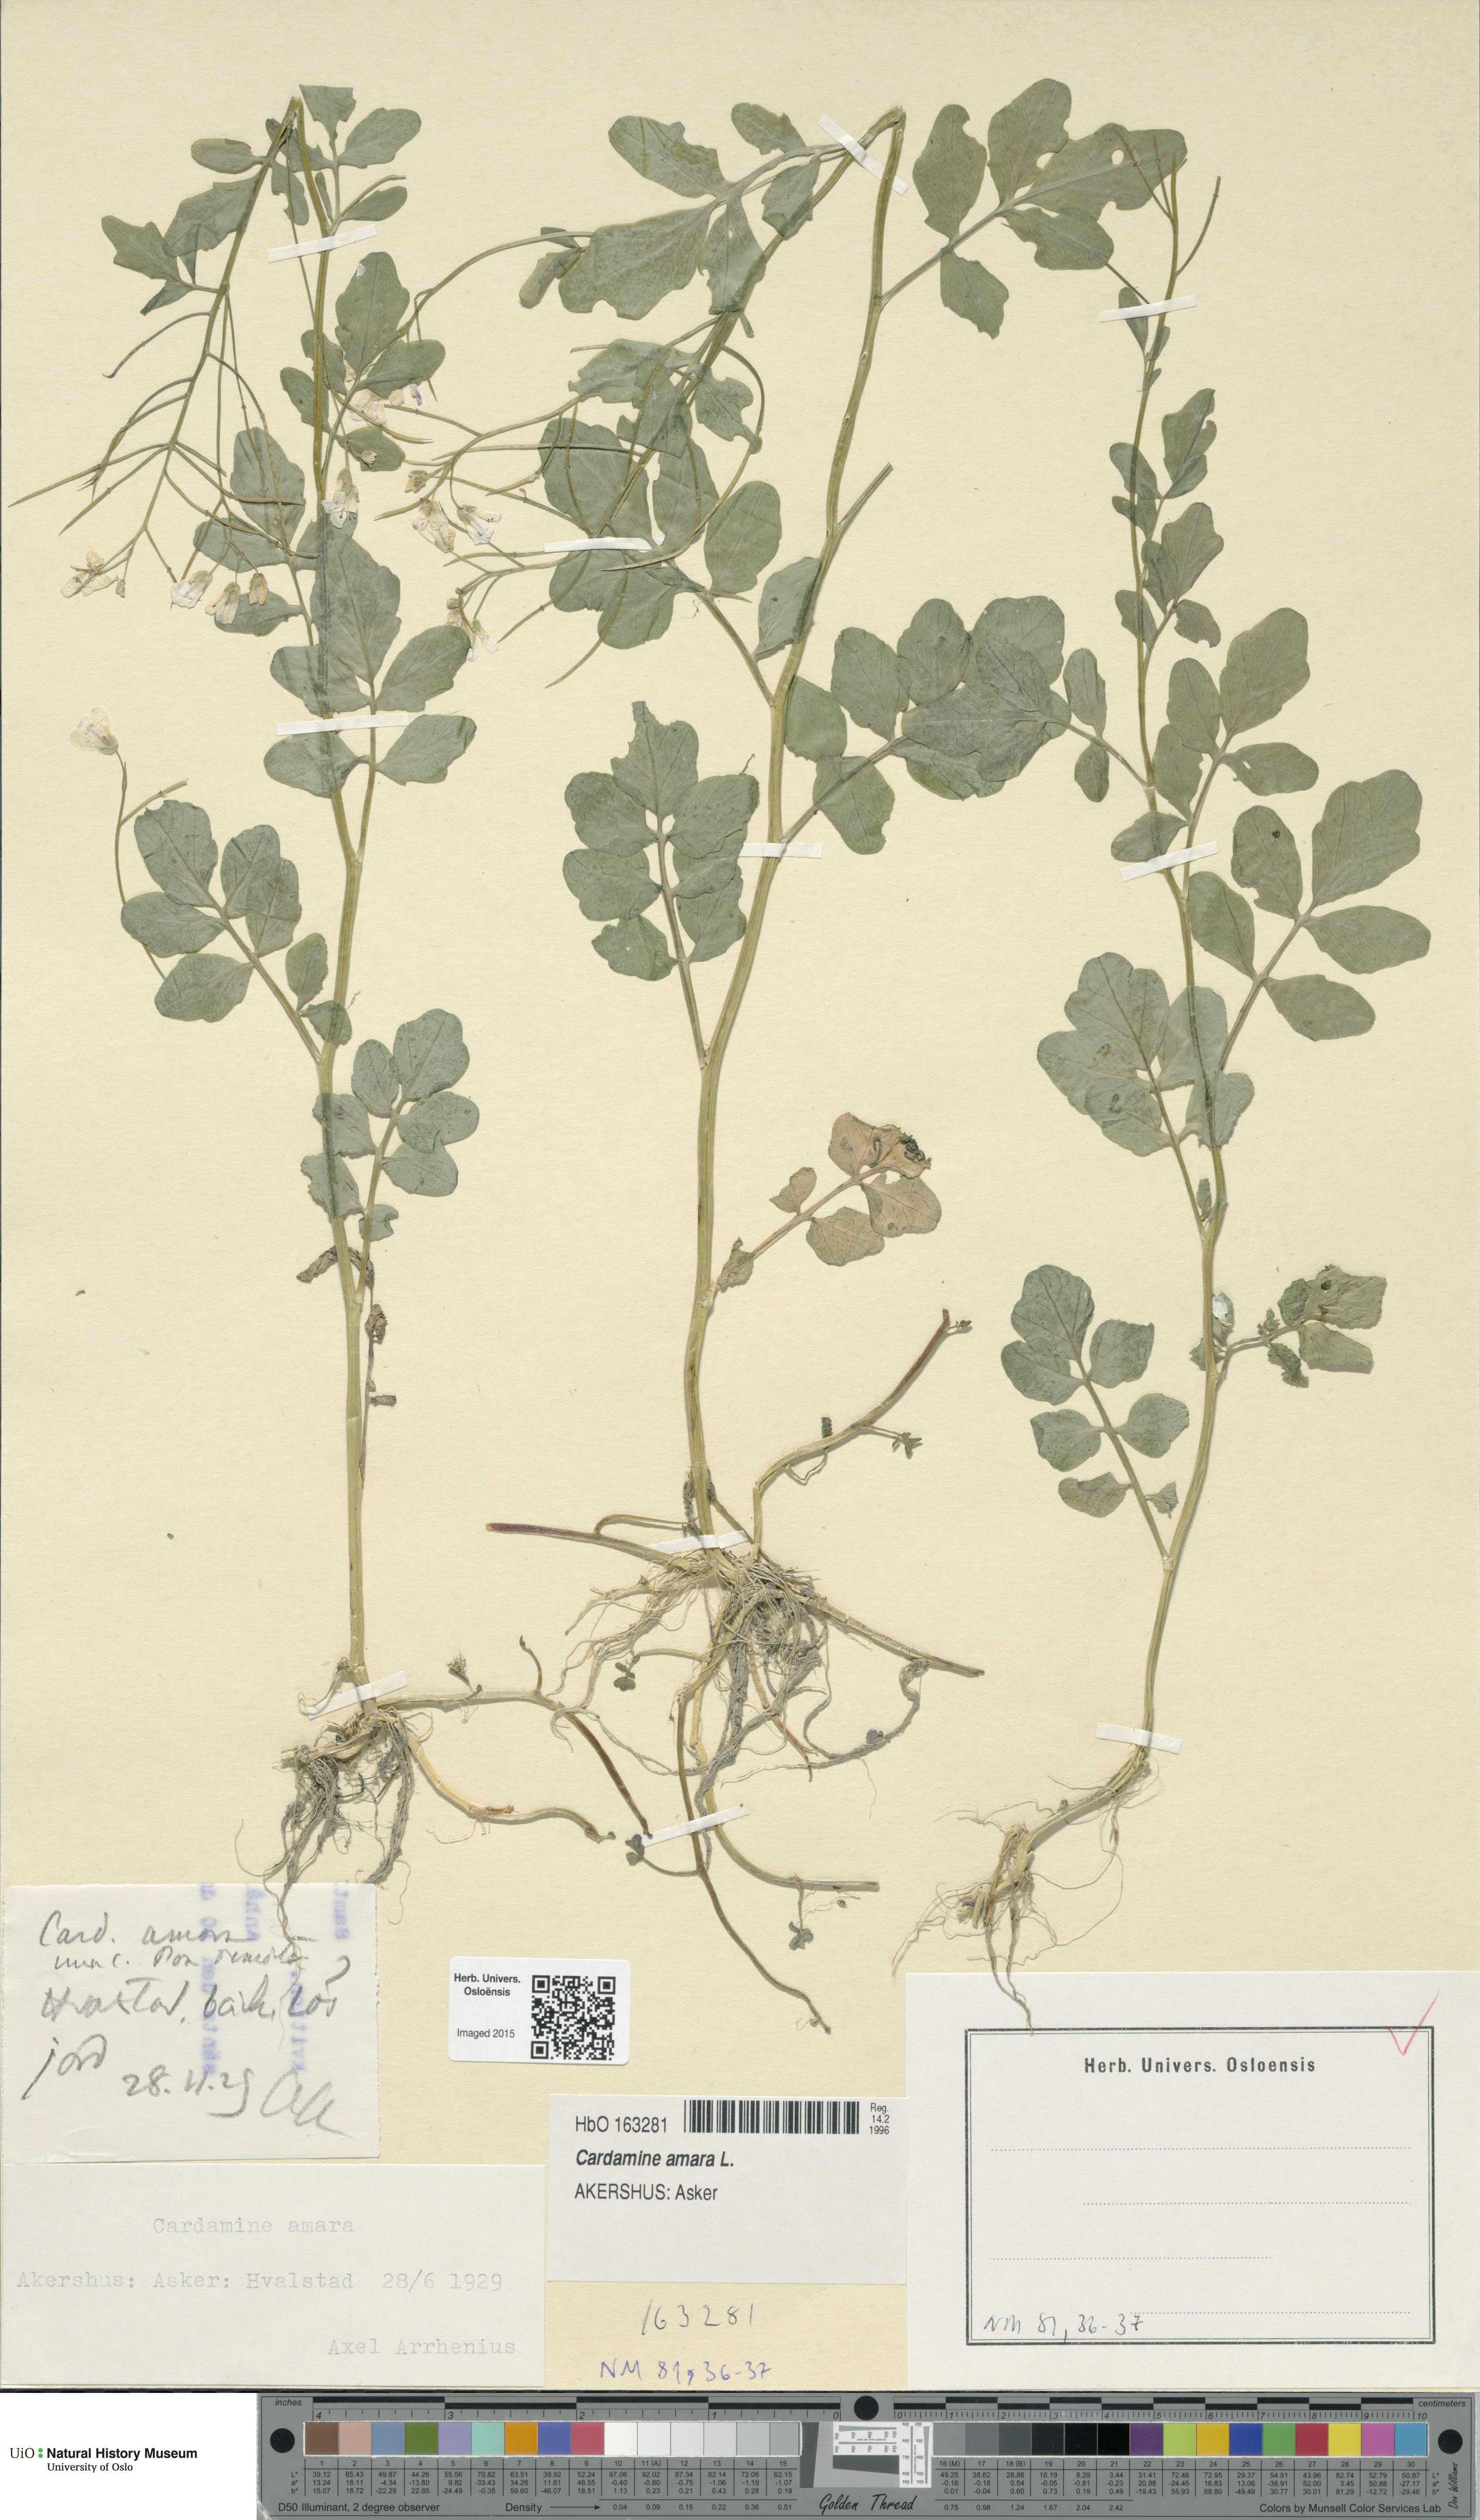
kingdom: Plantae
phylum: Tracheophyta
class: Magnoliopsida
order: Brassicales
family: Brassicaceae
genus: Cardamine
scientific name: Cardamine amara
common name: Large bitter-cress
